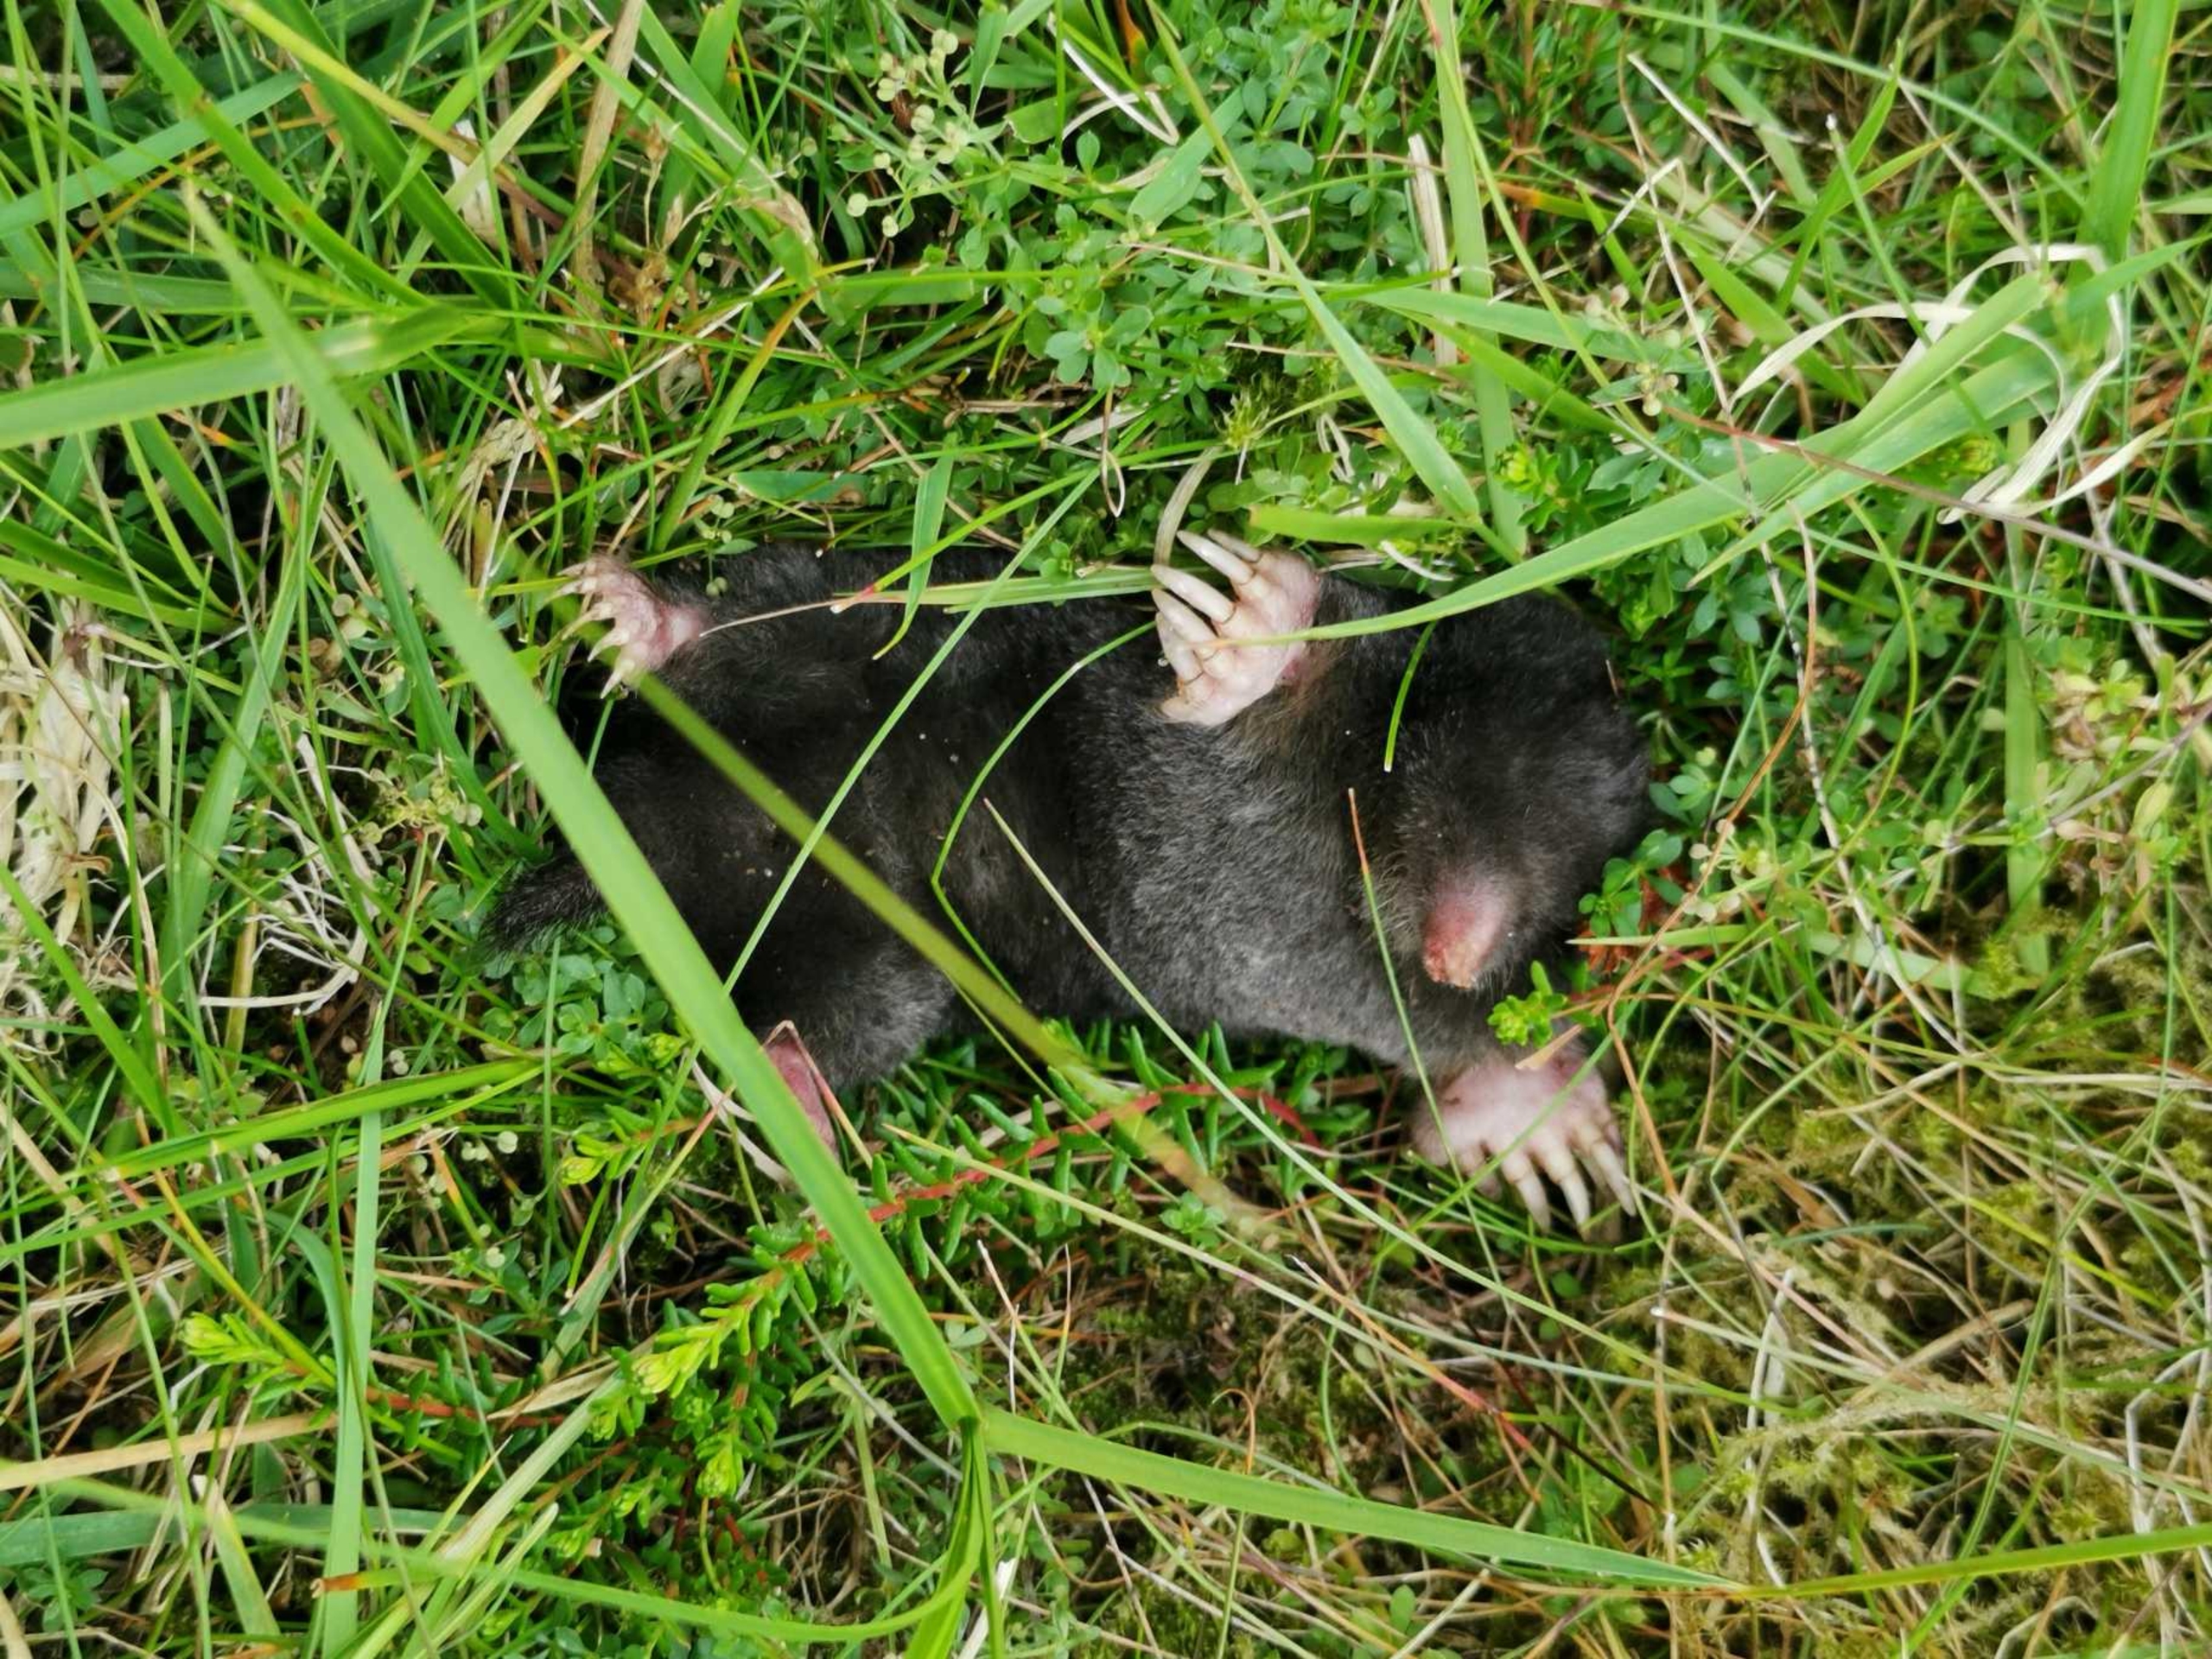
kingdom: Animalia
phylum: Chordata
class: Mammalia
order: Soricomorpha
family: Talpidae
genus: Talpa
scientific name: Talpa europaea
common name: Muldvarp
